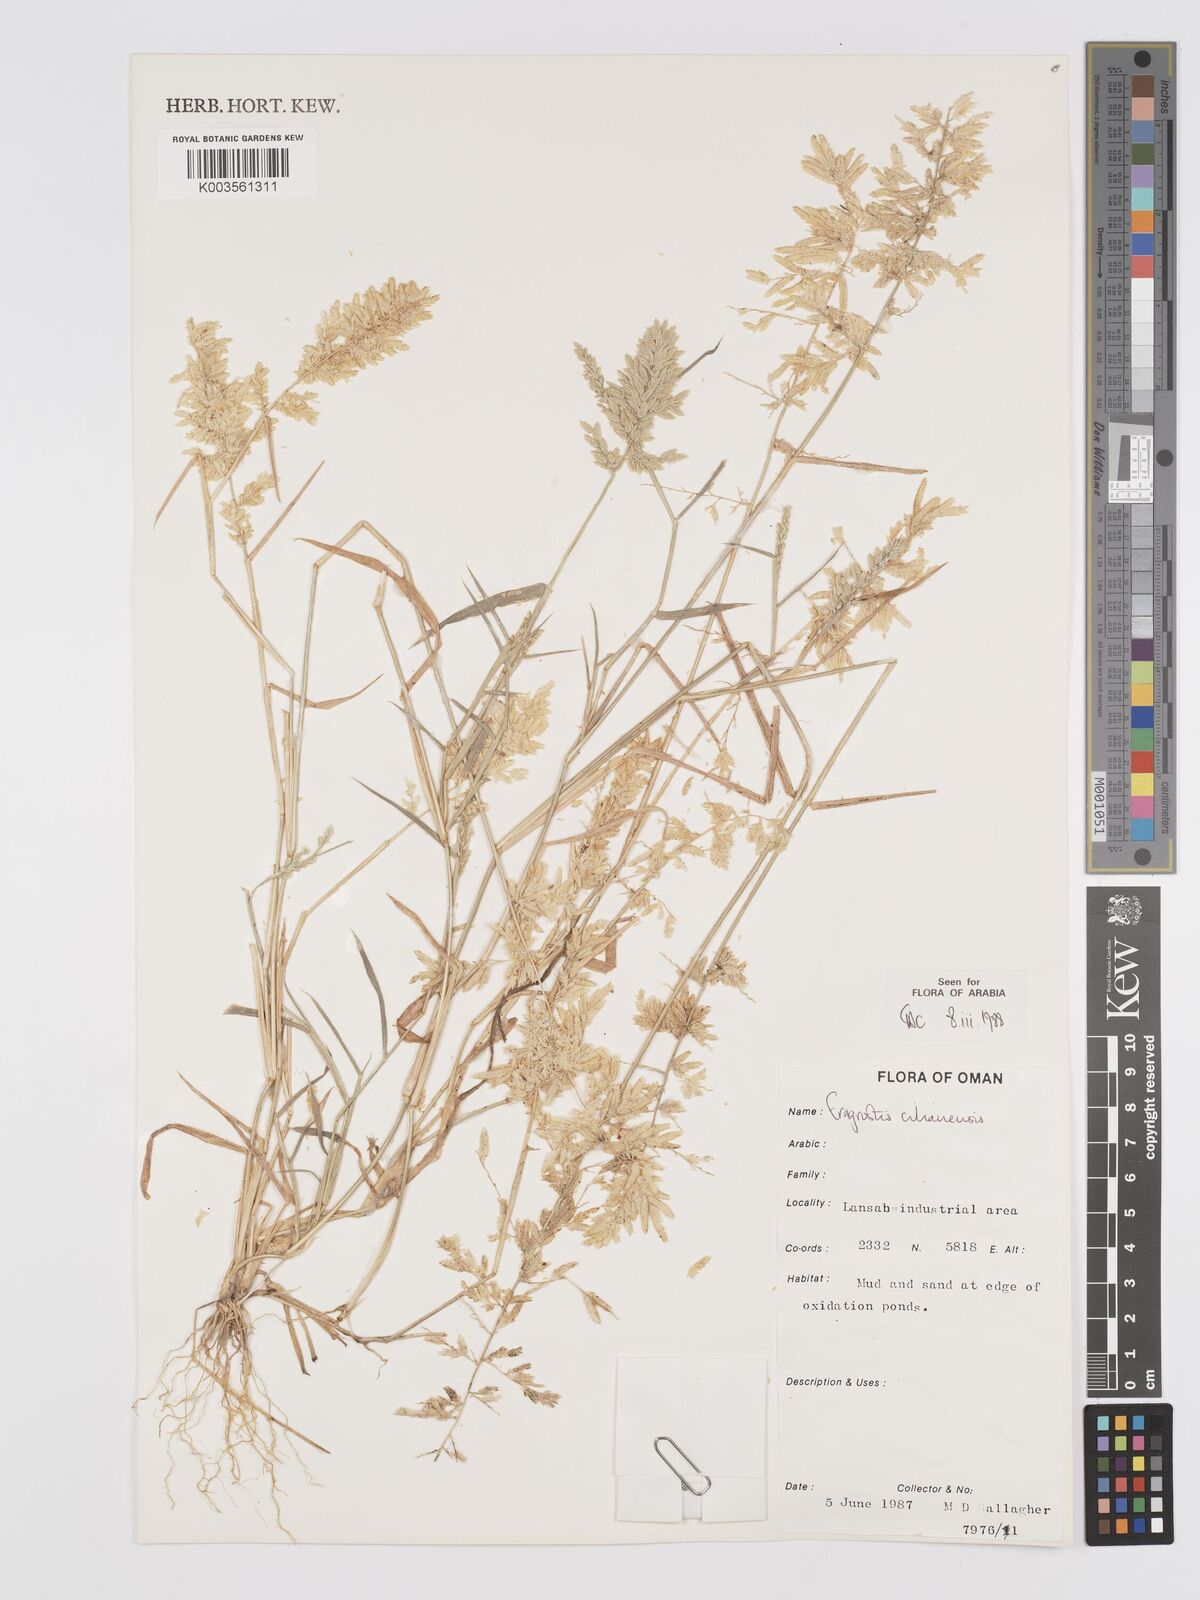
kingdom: Plantae
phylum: Tracheophyta
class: Liliopsida
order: Poales
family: Poaceae
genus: Eragrostis
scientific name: Eragrostis cilianensis
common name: Stinkgrass
